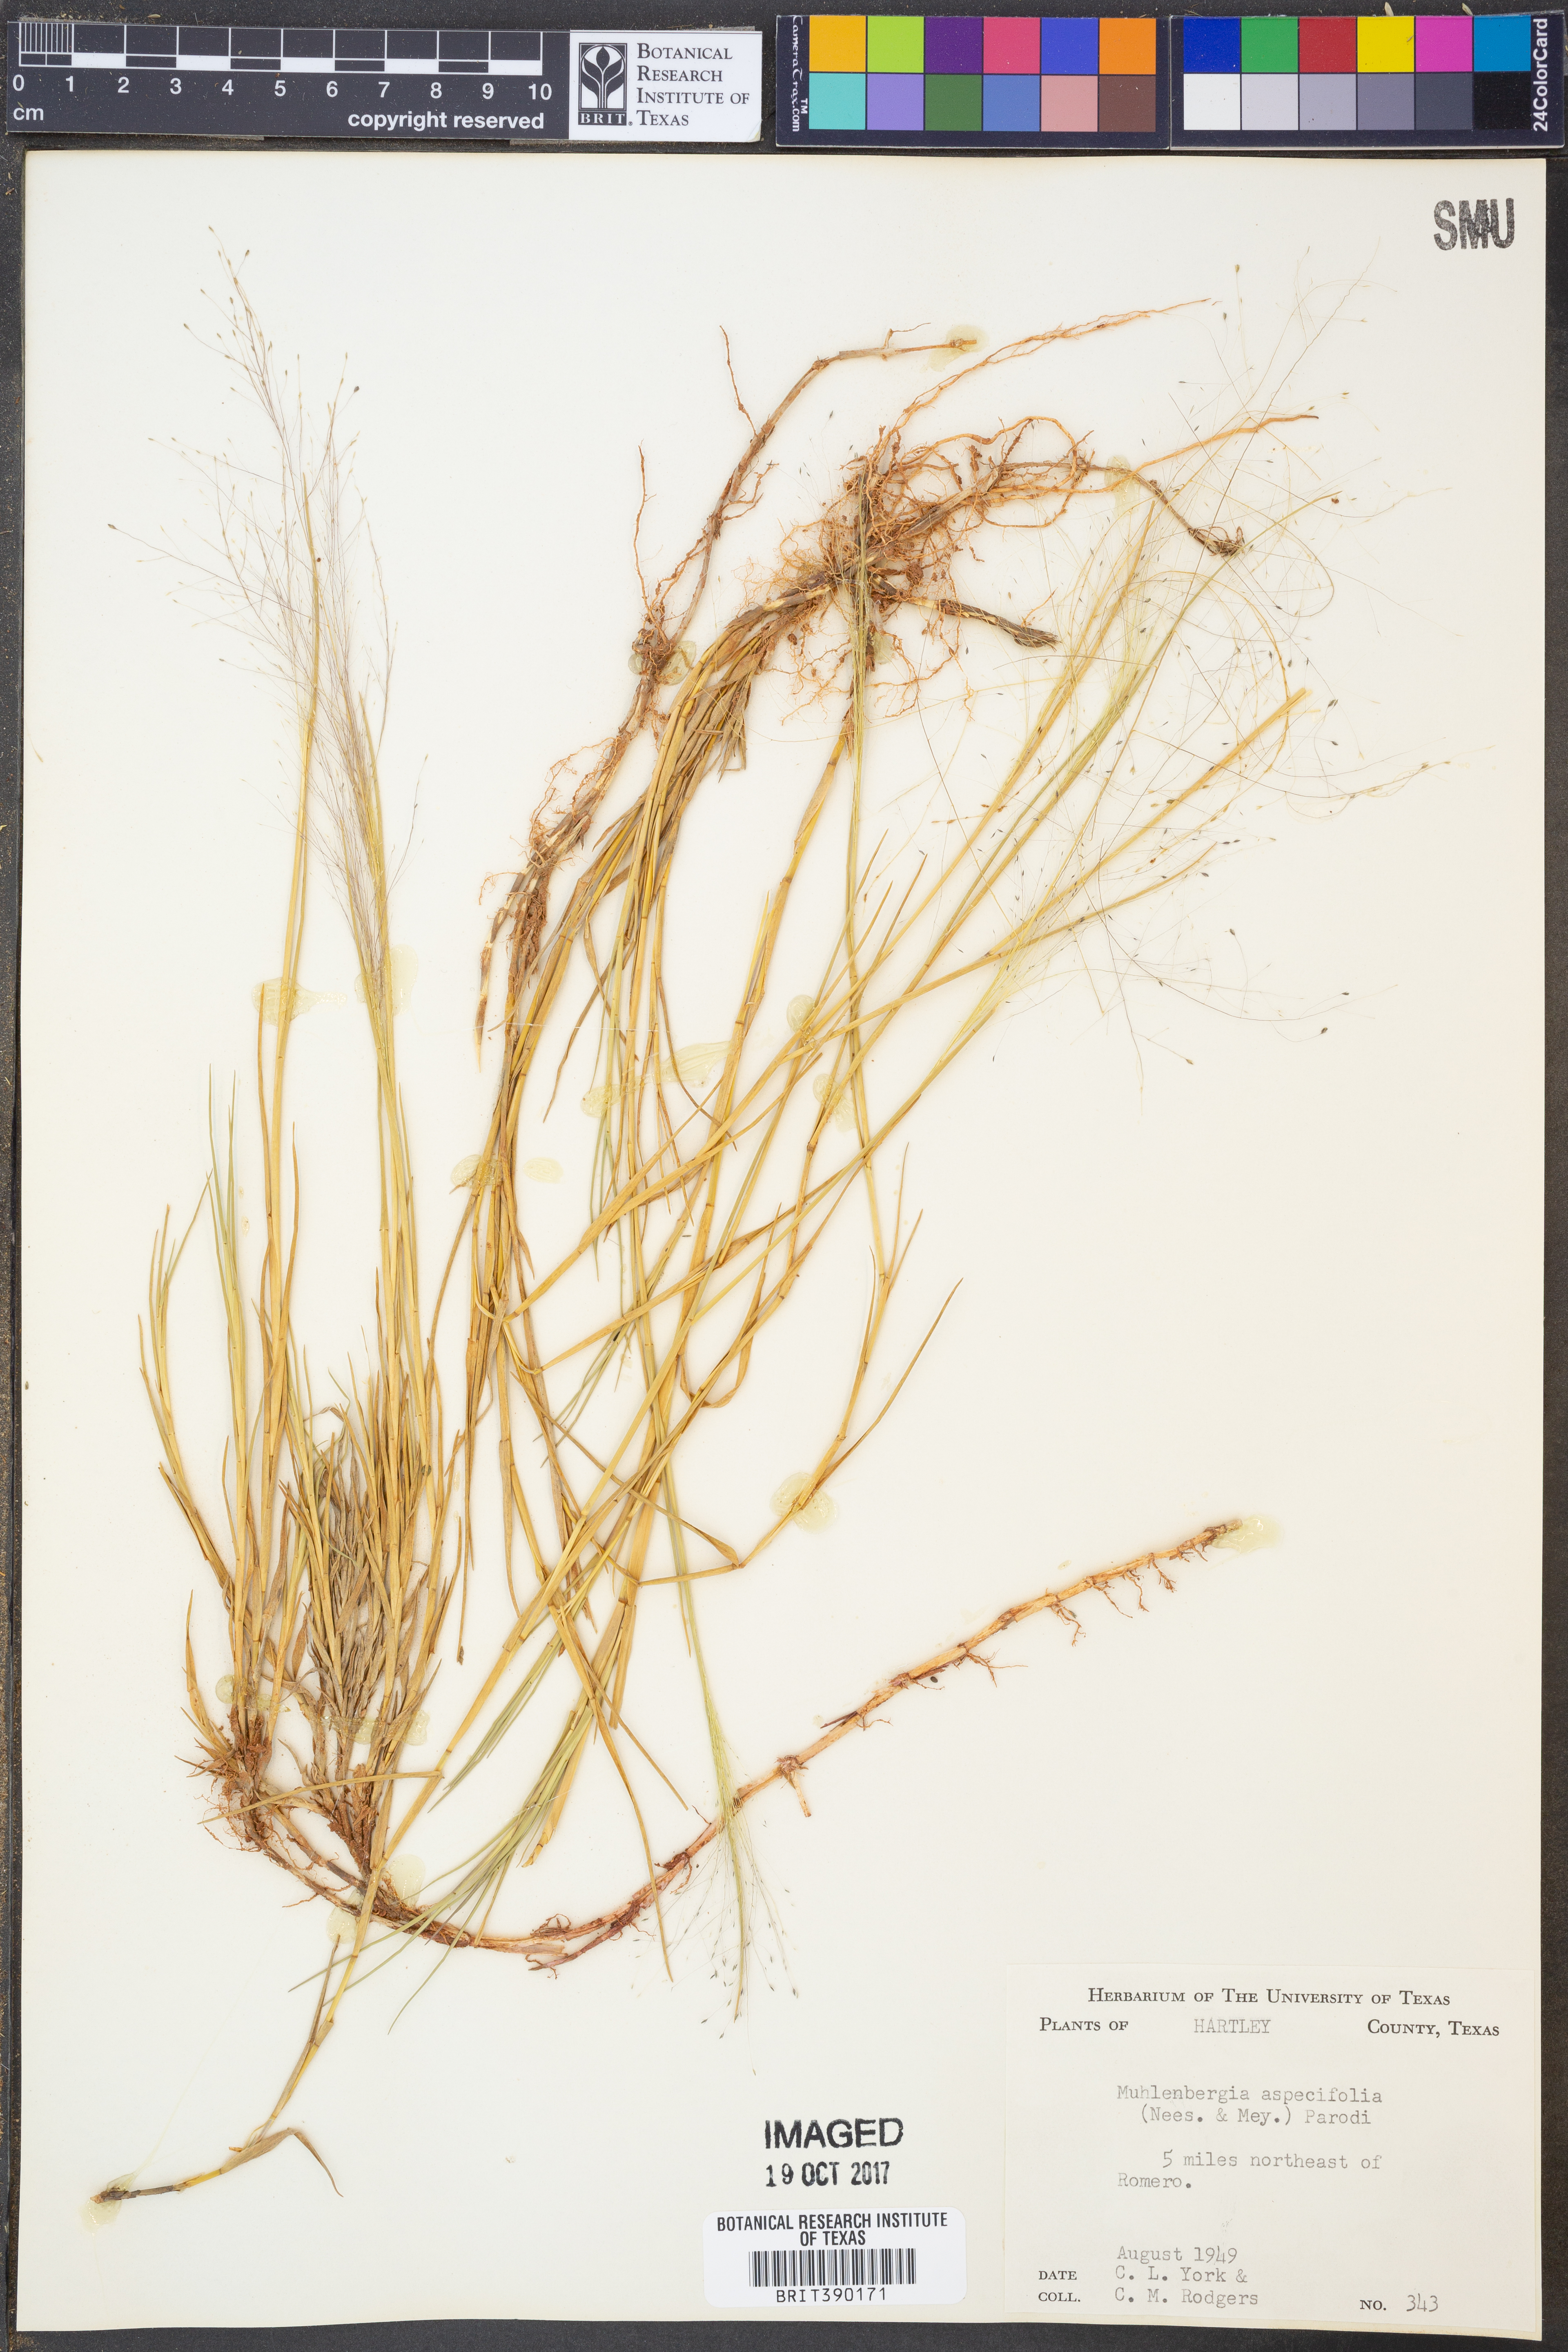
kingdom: Plantae
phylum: Tracheophyta
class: Liliopsida
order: Poales
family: Poaceae
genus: Muhlenbergia
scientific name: Muhlenbergia asperifolia
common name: Alkali muhly
